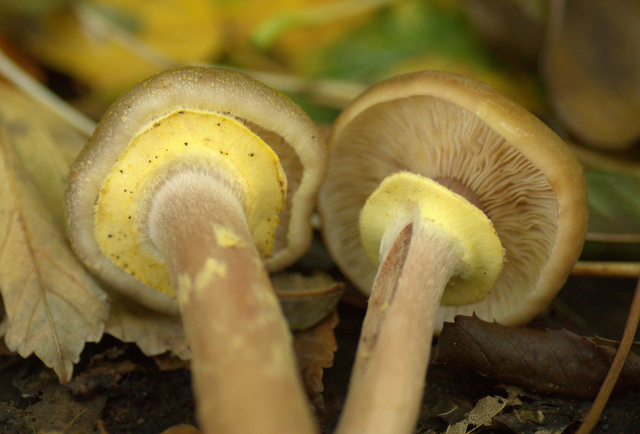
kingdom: Fungi
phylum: Basidiomycota
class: Agaricomycetes
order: Agaricales
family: Physalacriaceae
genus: Armillaria
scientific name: Armillaria mellea
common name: ægte honningsvamp
